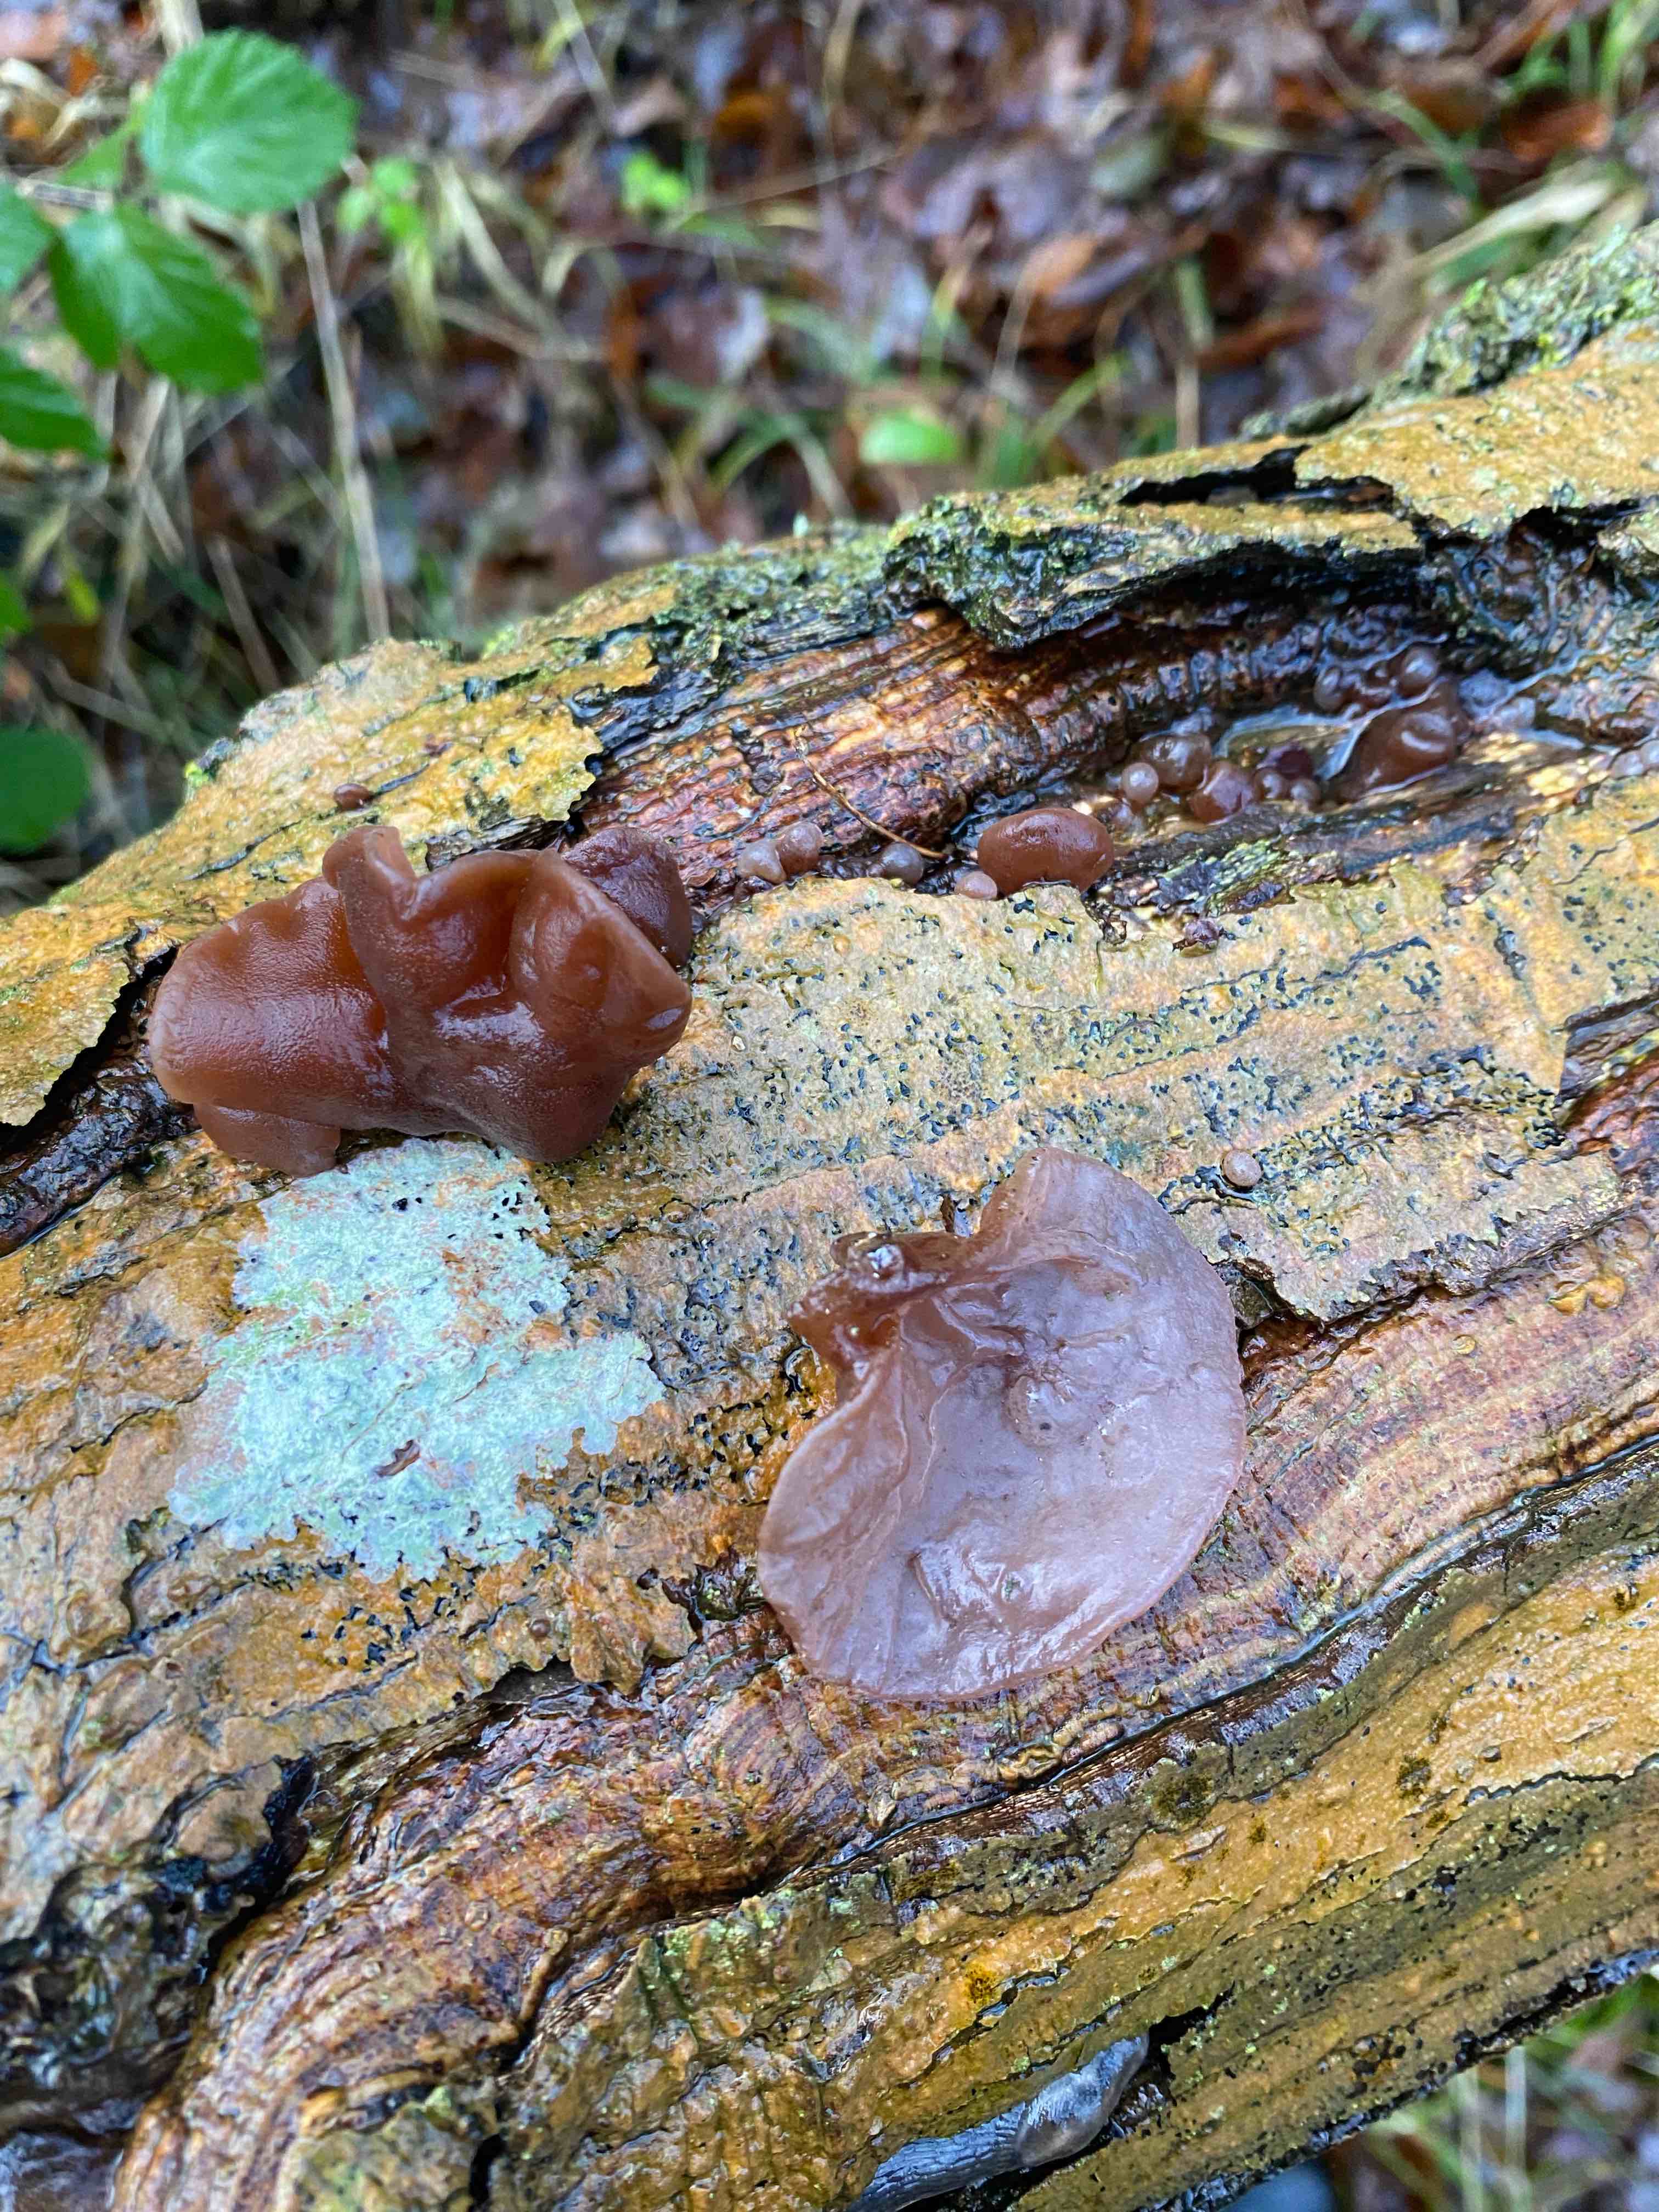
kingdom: Fungi
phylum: Basidiomycota
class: Agaricomycetes
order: Auriculariales
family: Auriculariaceae
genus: Auricularia
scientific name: Auricularia auricula-judae
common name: almindelig judasøre
